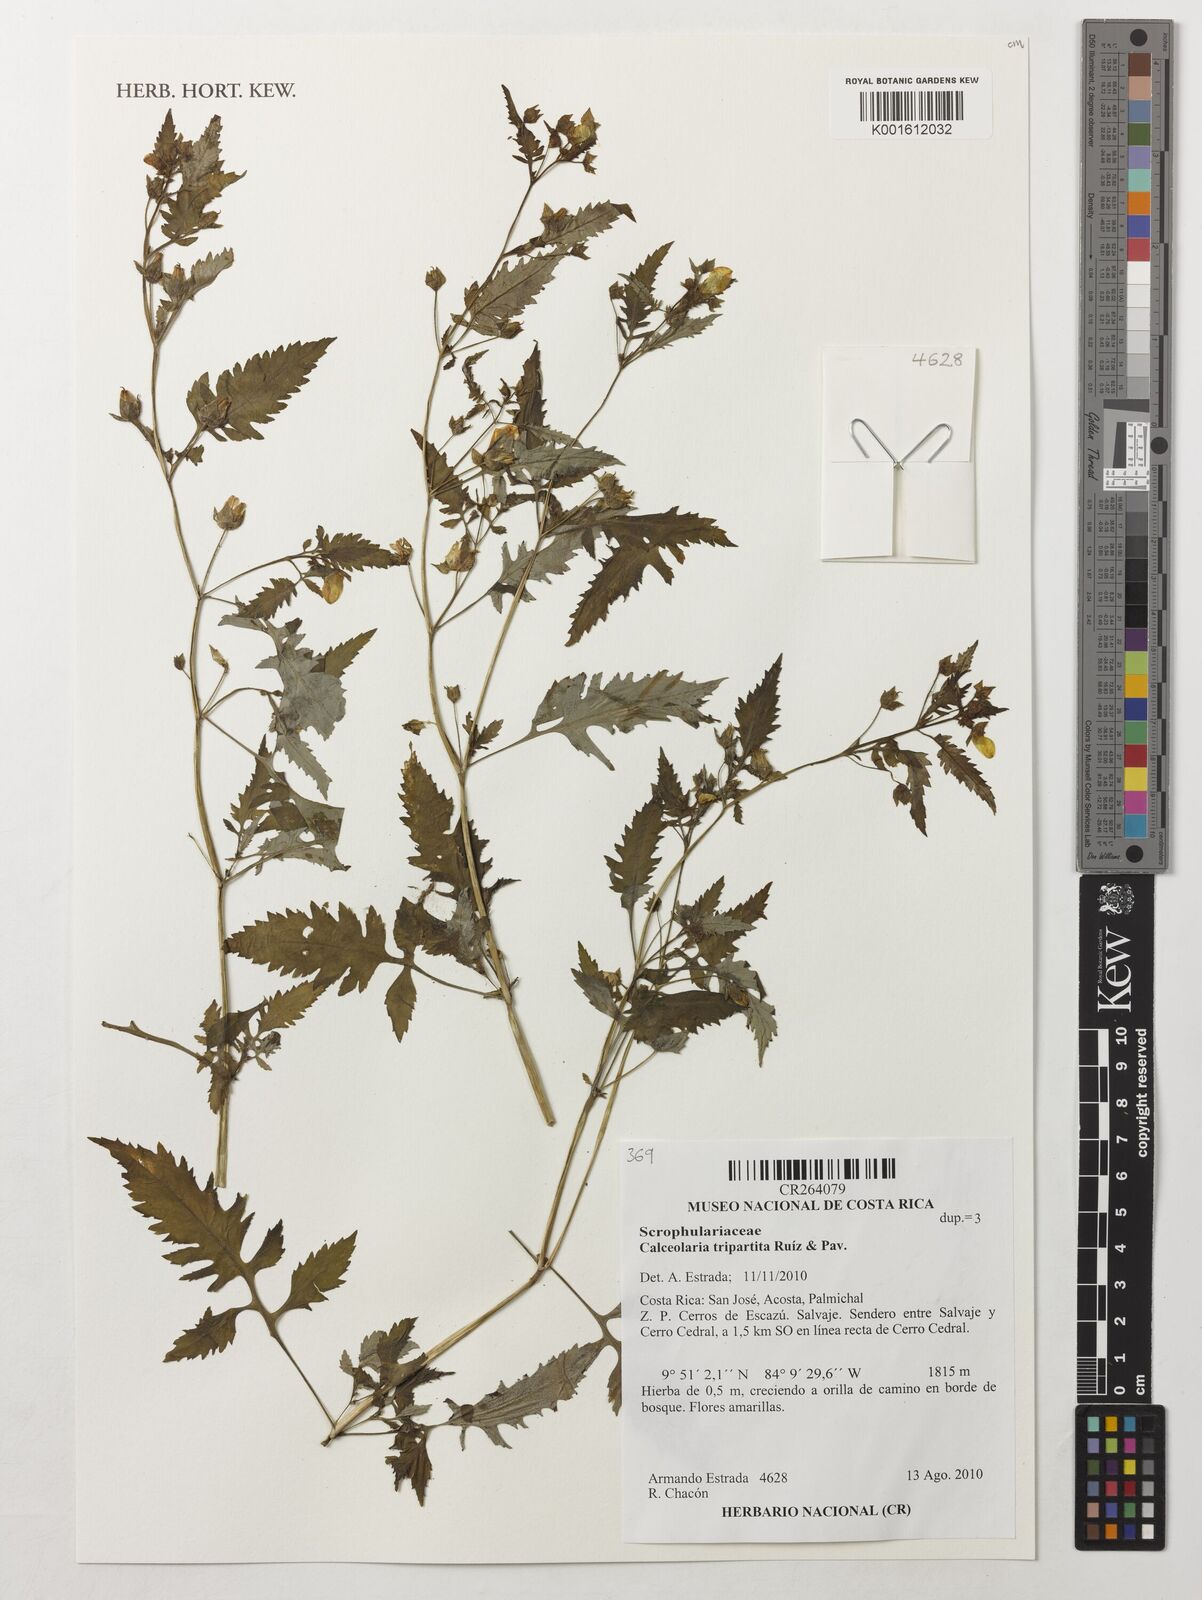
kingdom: Plantae
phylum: Tracheophyta
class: Magnoliopsida
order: Lamiales
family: Calceolariaceae
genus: Calceolaria
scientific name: Calceolaria tripartita
